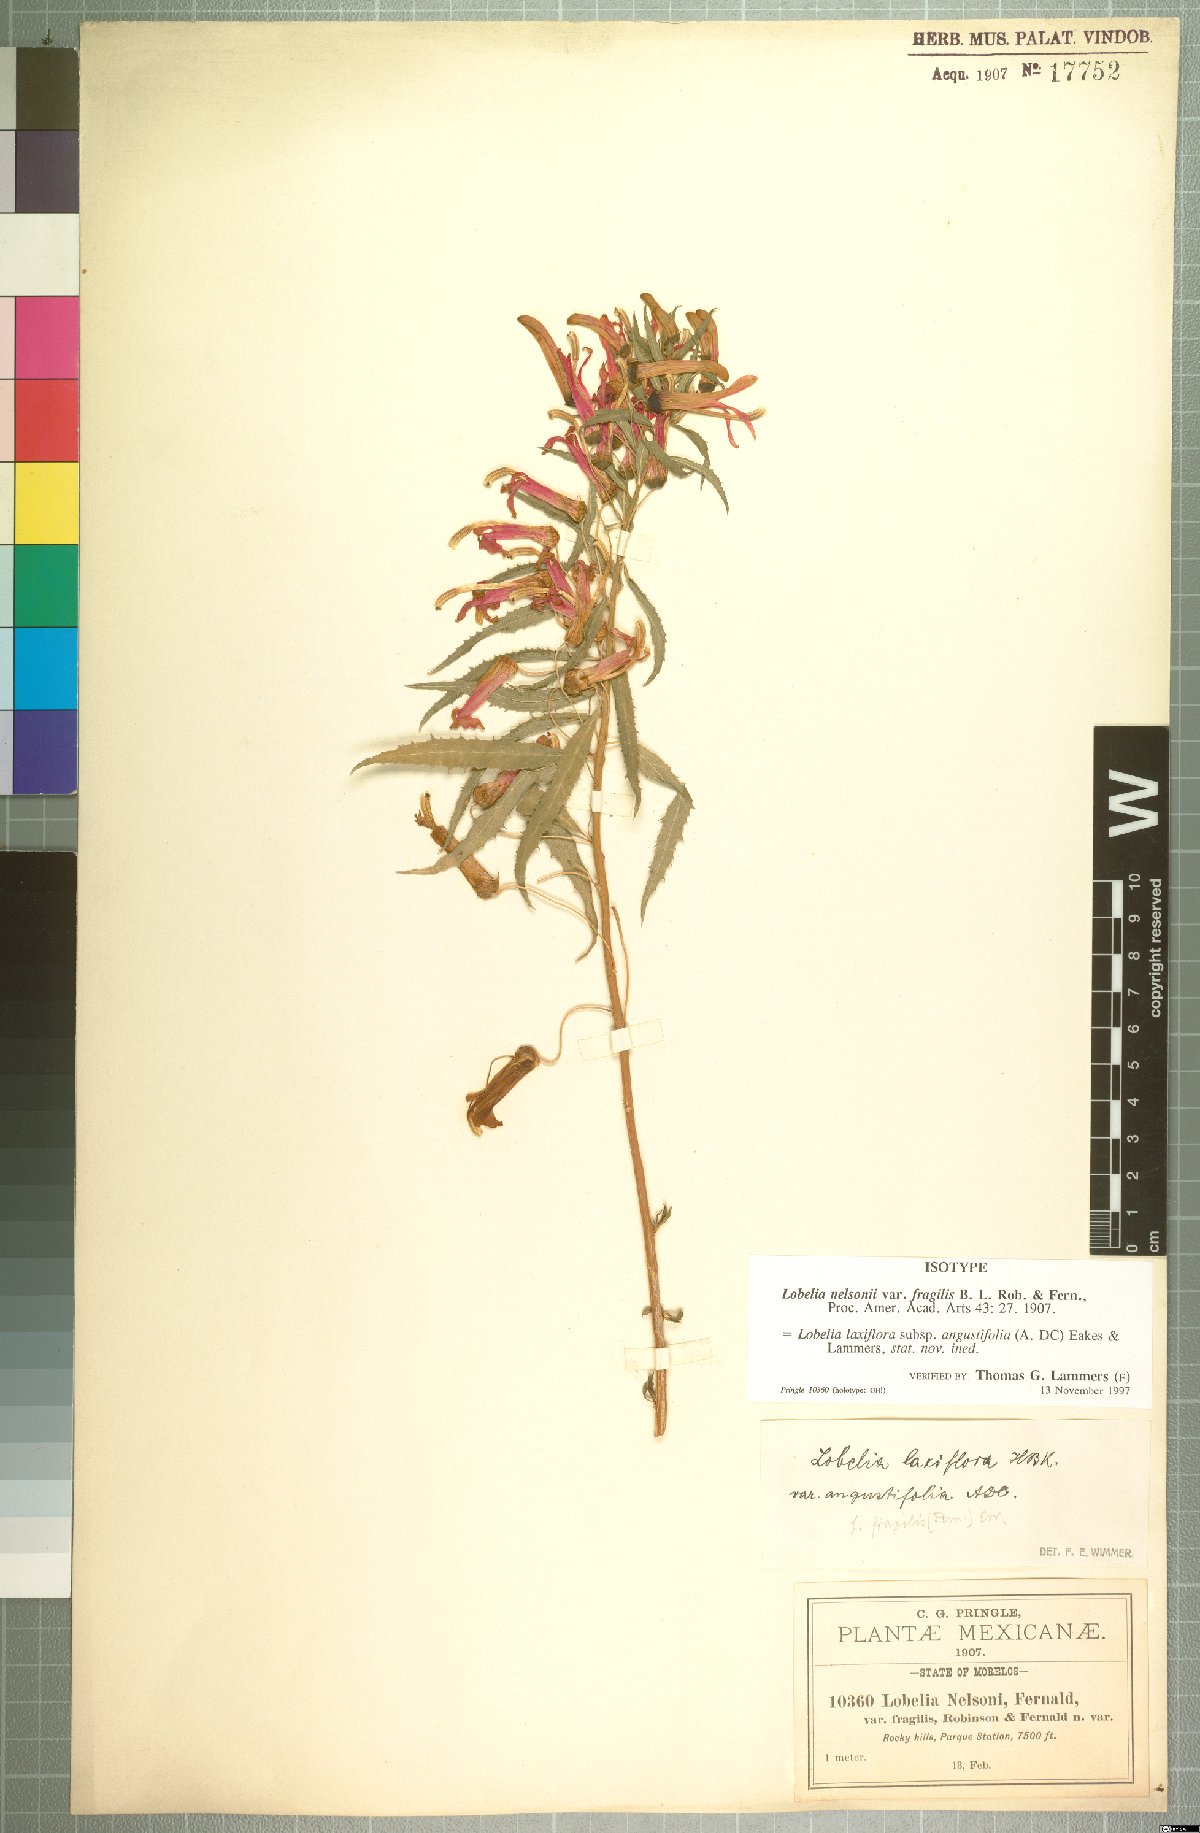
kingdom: Plantae
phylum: Tracheophyta
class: Magnoliopsida
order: Asterales
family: Campanulaceae
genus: Lobelia
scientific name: Lobelia laxiflora
